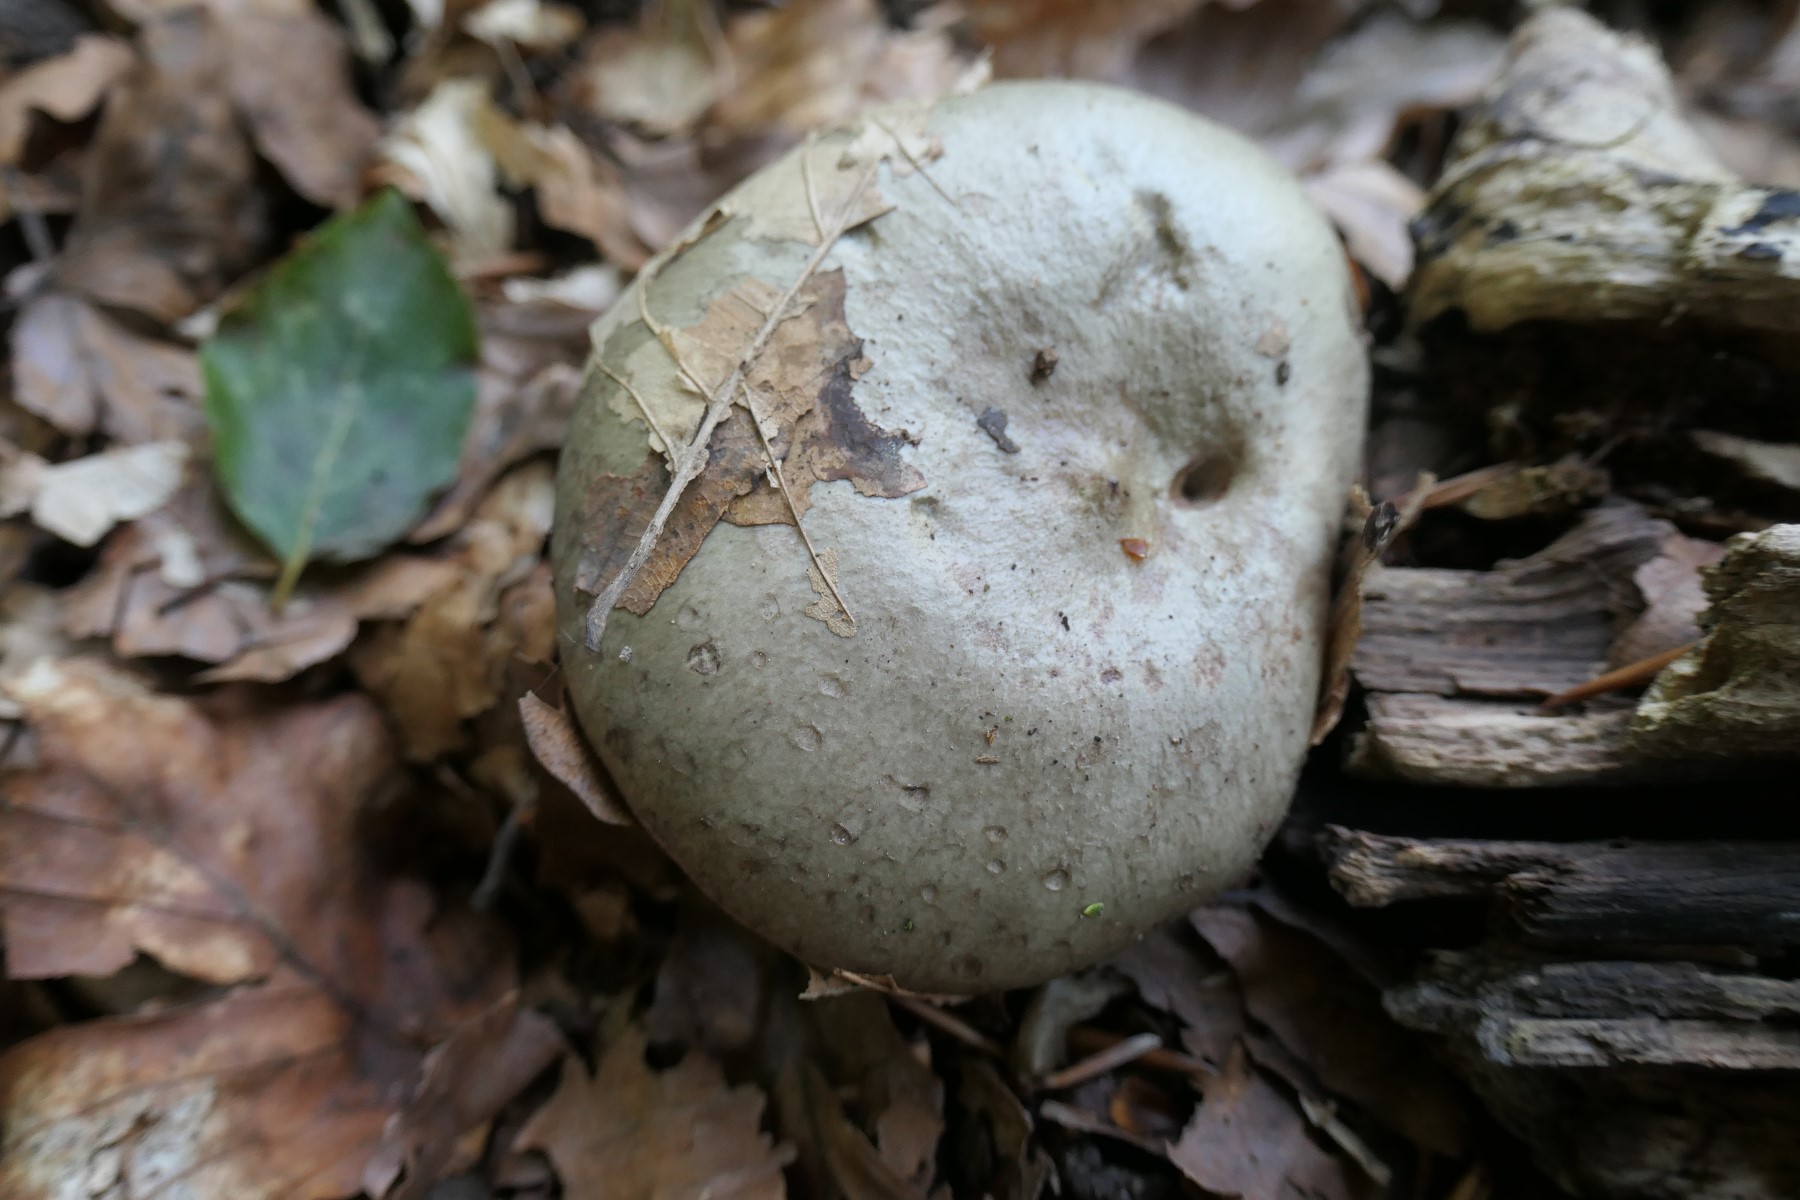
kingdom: Fungi
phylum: Basidiomycota
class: Agaricomycetes
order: Russulales
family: Russulaceae
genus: Lactarius
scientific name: Lactarius blennius
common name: dråbeplettet mælkehat
